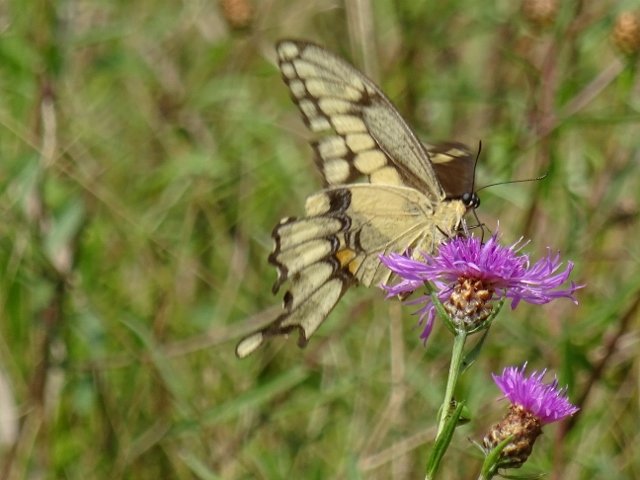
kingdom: Animalia
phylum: Arthropoda
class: Insecta
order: Lepidoptera
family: Papilionidae
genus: Papilio
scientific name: Papilio cresphontes
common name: Eastern Giant Swallowtail
